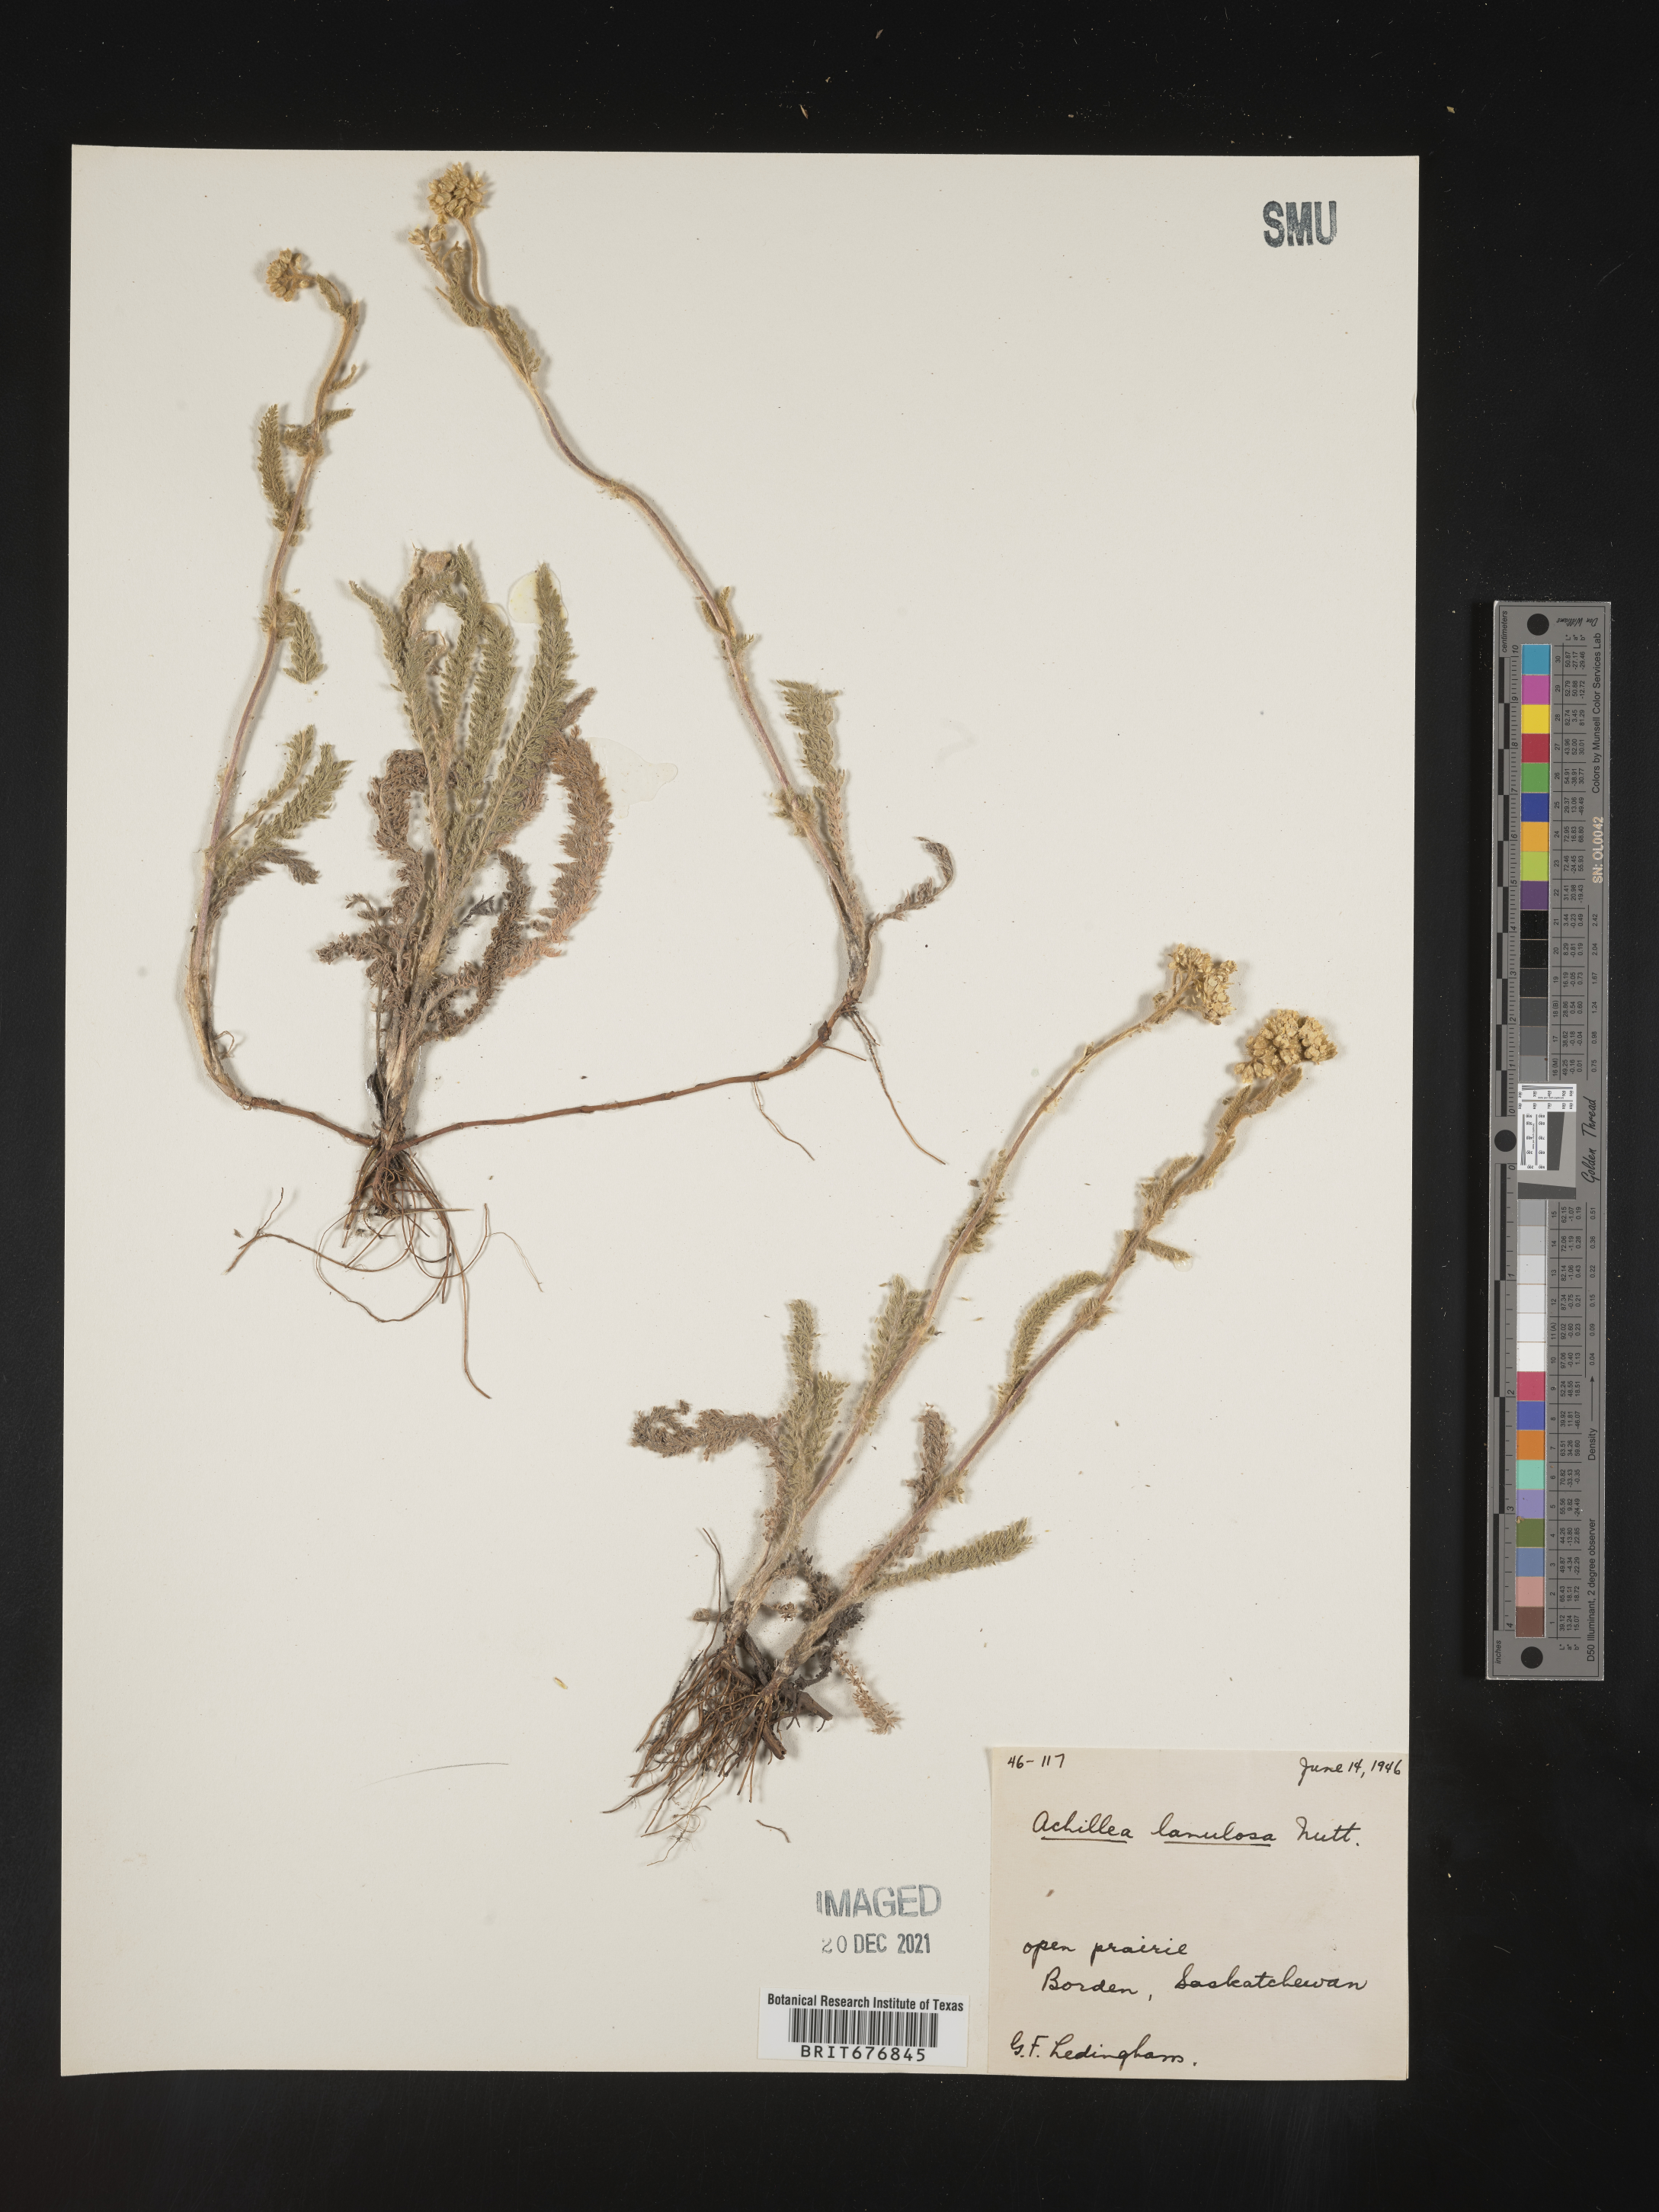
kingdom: Plantae
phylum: Tracheophyta
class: Magnoliopsida
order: Asterales
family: Asteraceae
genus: Achillea
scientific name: Achillea millefolium
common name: Yarrow
